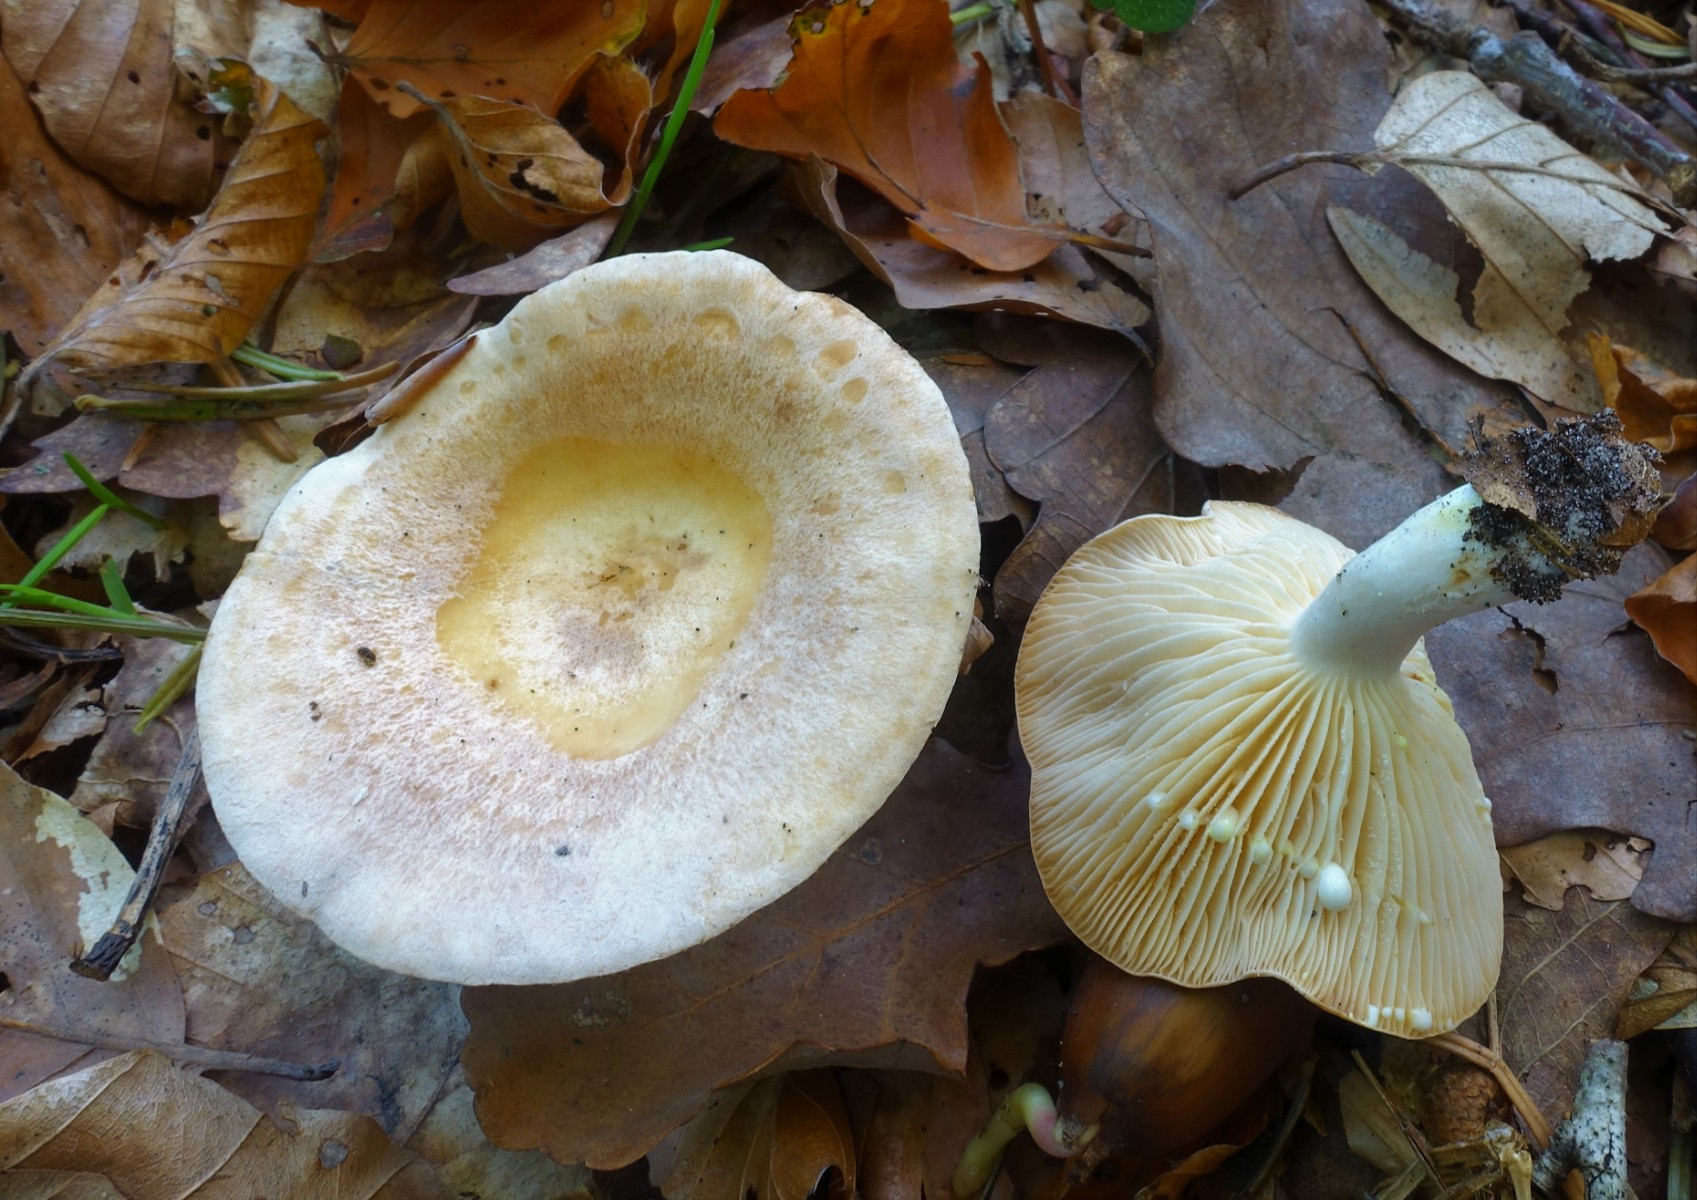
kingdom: Fungi
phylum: Basidiomycota
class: Agaricomycetes
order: Russulales
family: Russulaceae
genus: Lactarius
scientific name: Lactarius chrysorrheus
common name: svovlmælket mælkehat
